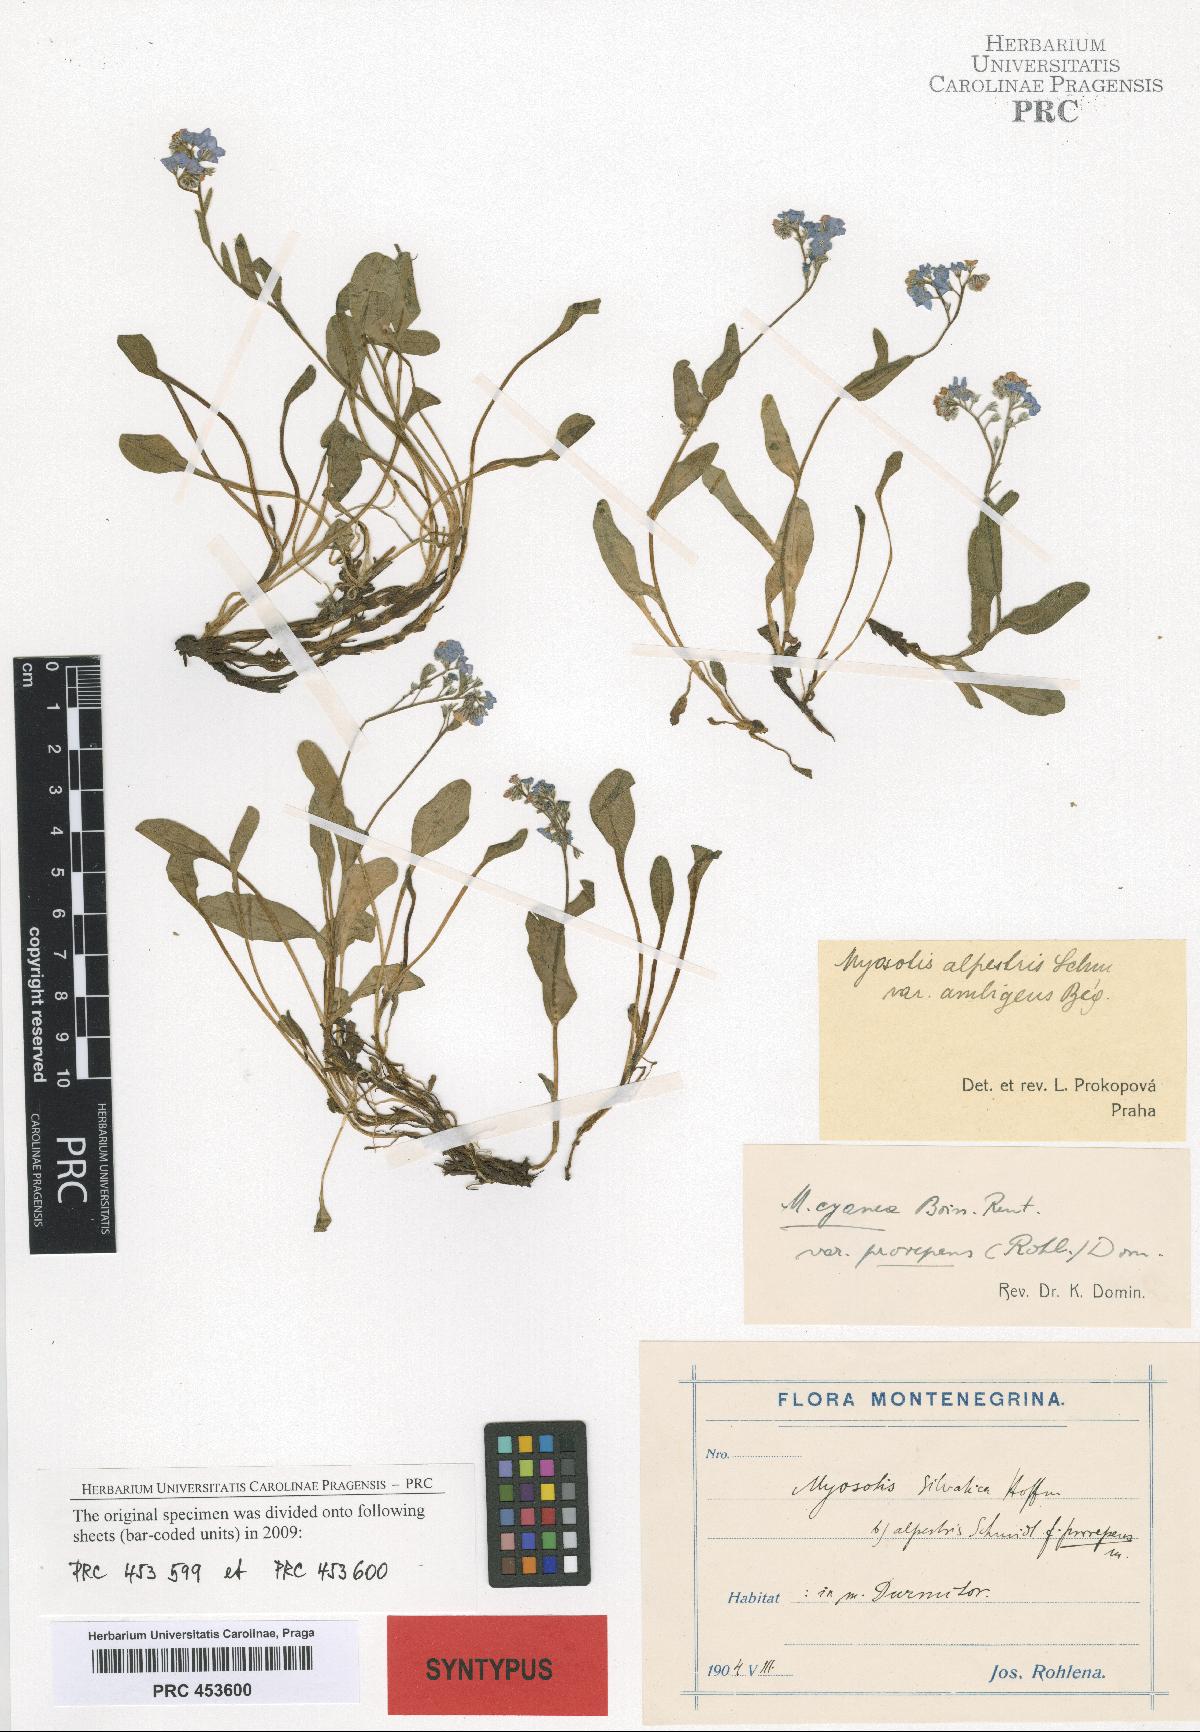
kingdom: Plantae
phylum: Tracheophyta
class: Magnoliopsida
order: Boraginales
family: Boraginaceae
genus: Myosotis
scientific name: Myosotis sylvatica
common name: Wood forget-me-not
